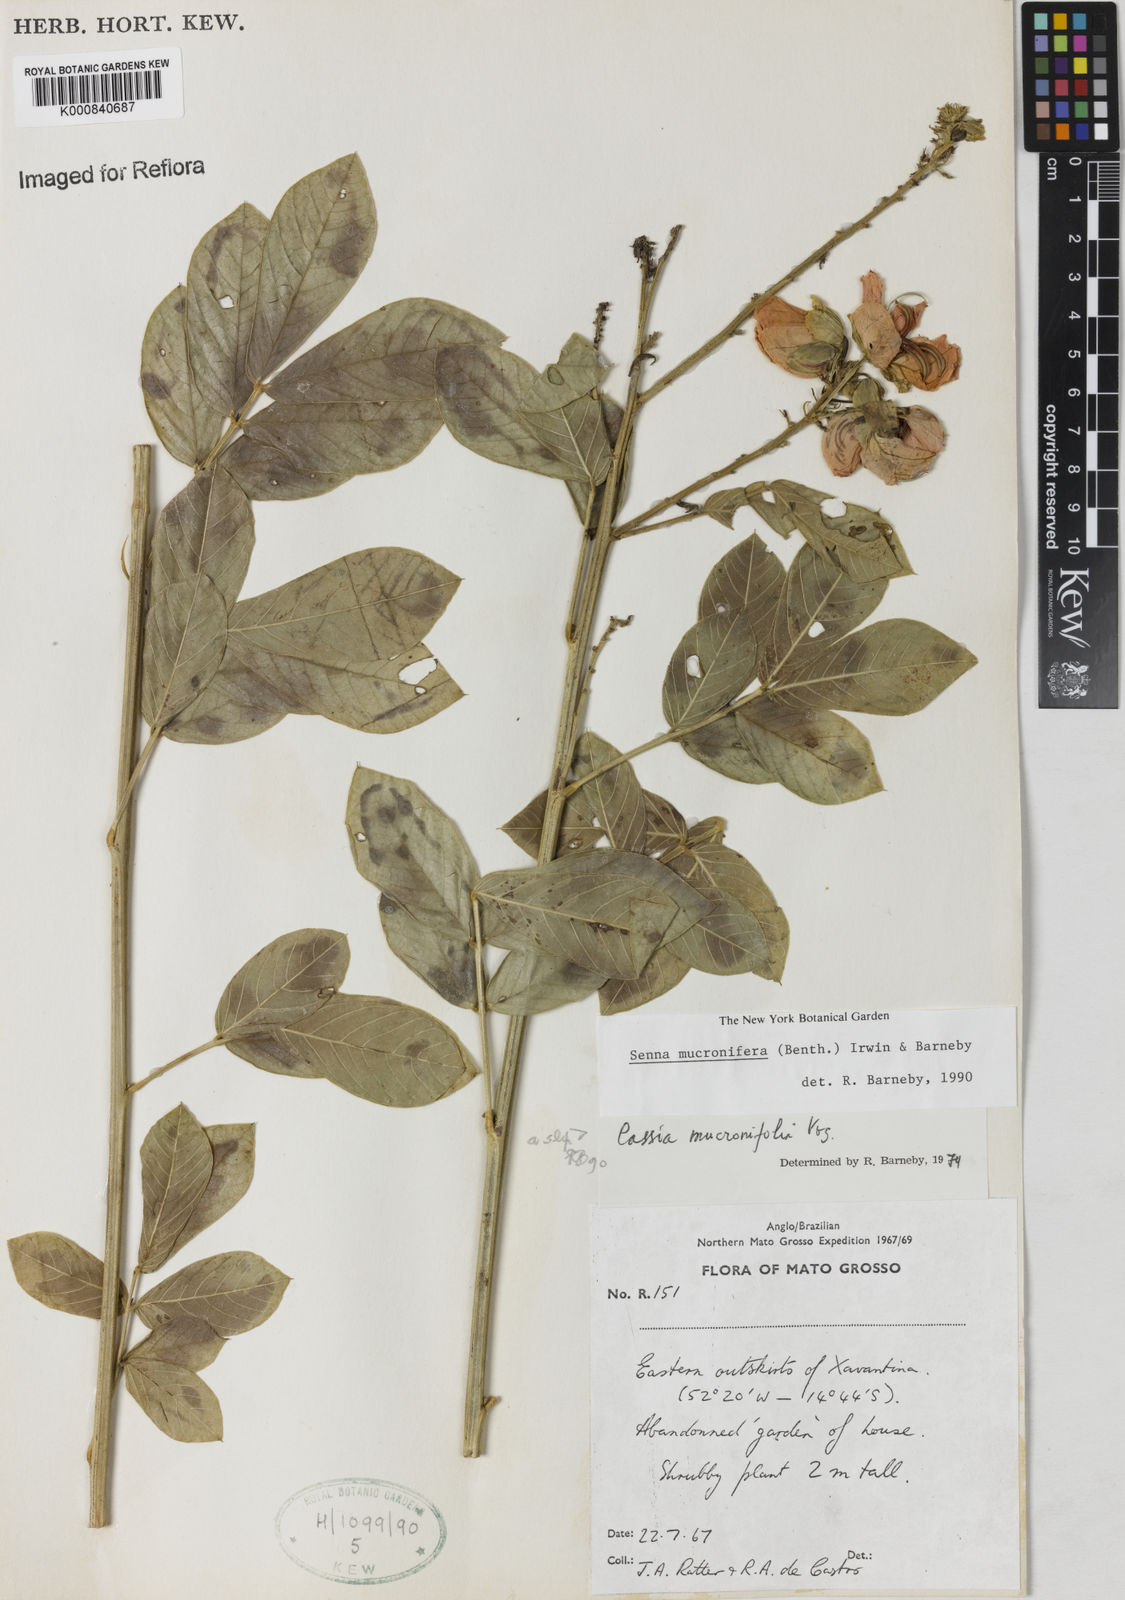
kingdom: Plantae
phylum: Tracheophyta
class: Magnoliopsida
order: Fabales
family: Fabaceae
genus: Senna
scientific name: Senna mucronifera
